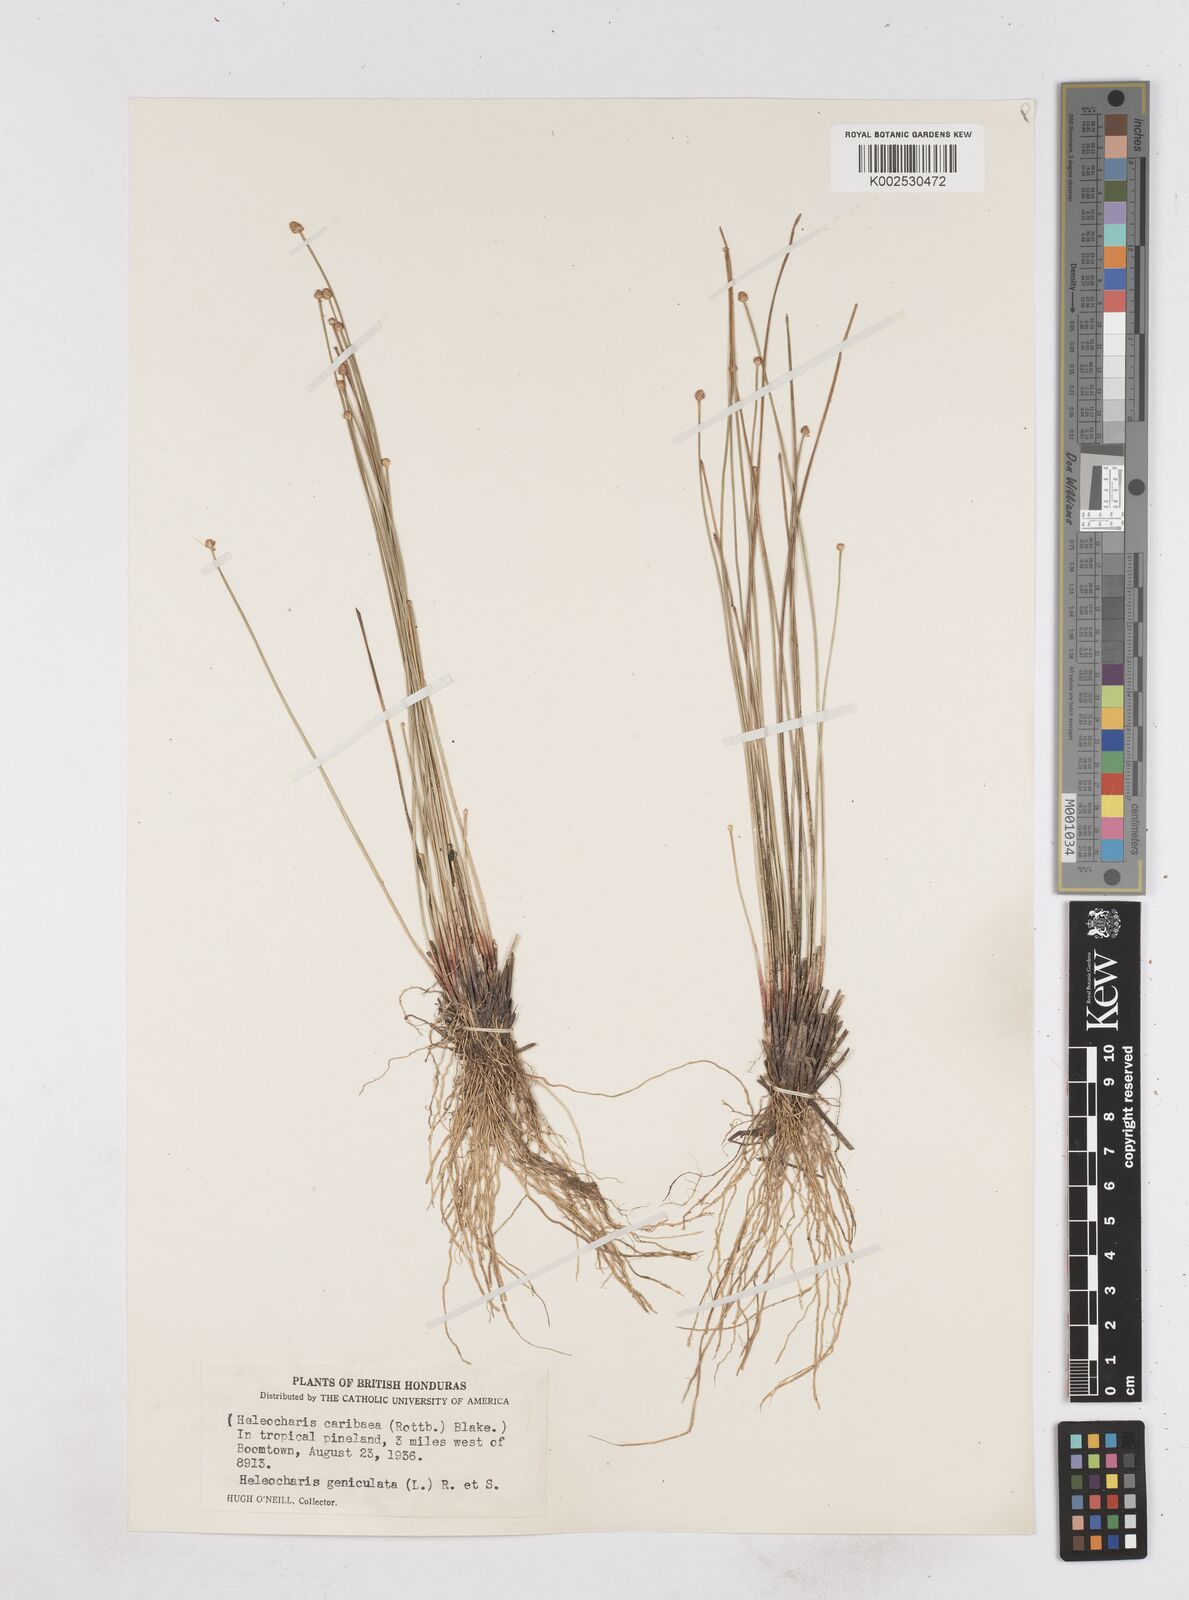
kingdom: Plantae
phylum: Tracheophyta
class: Liliopsida
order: Poales
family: Cyperaceae
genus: Eleocharis
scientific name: Eleocharis geniculata
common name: Canada spikesedge
